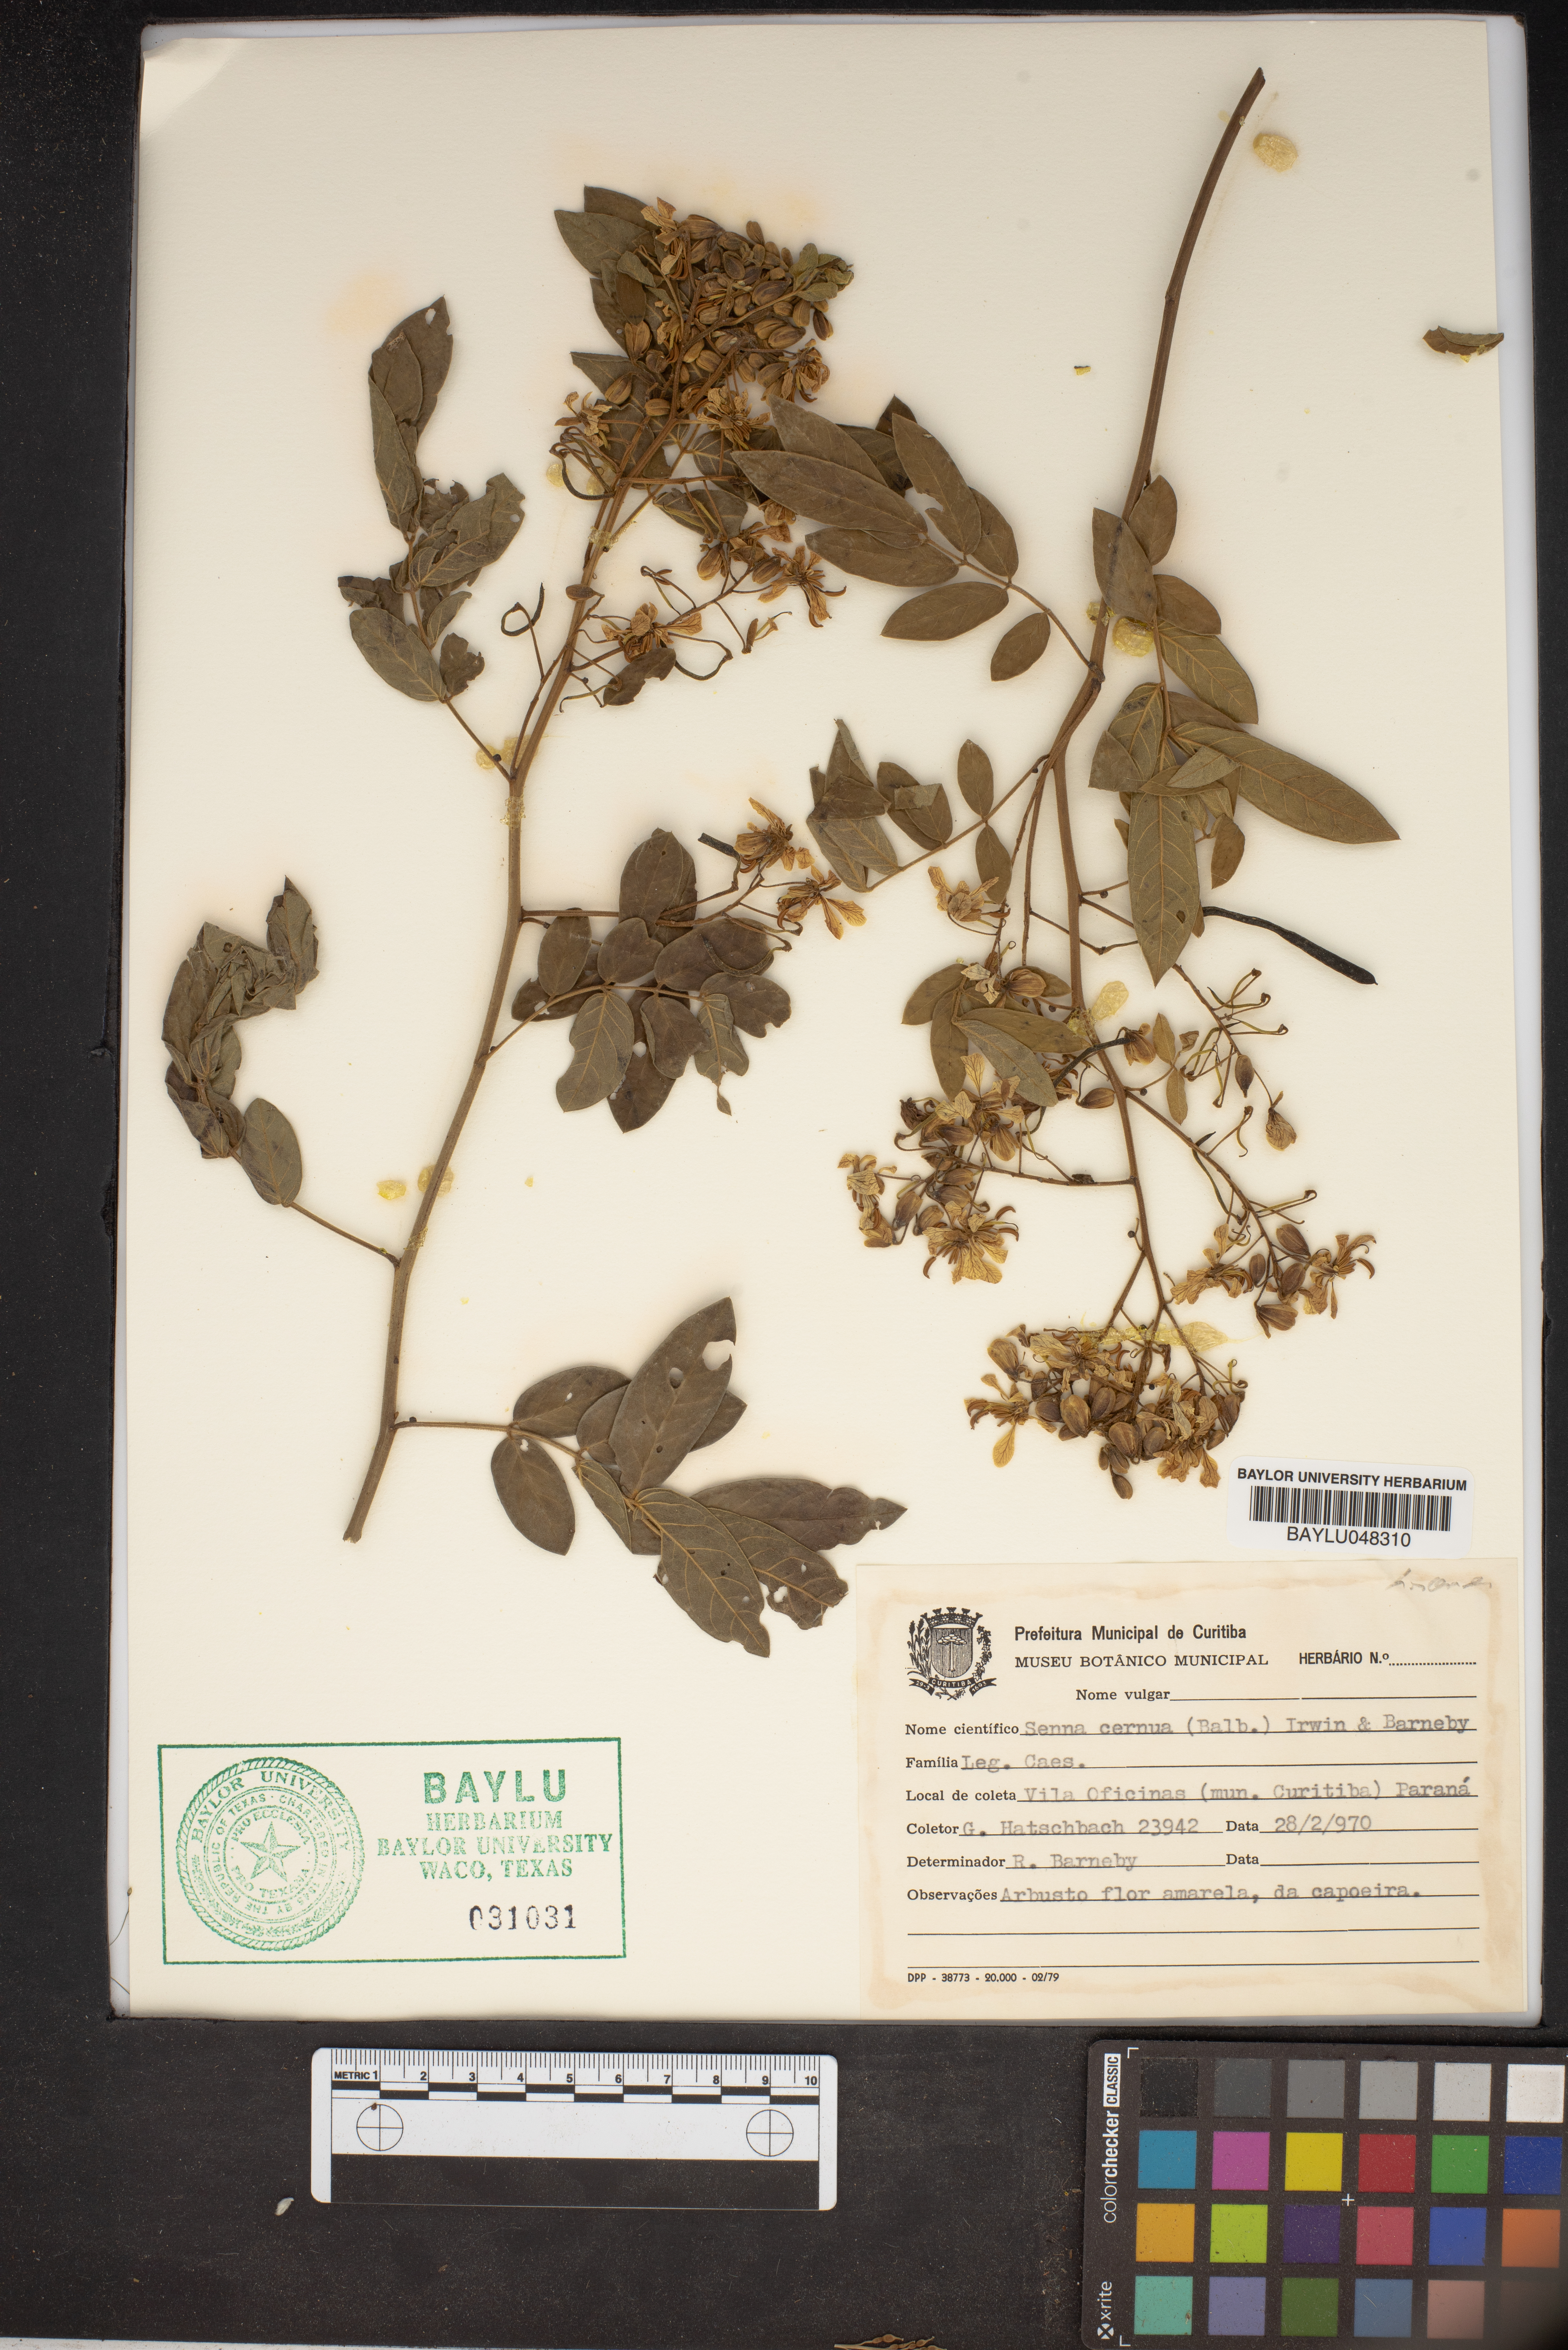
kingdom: Plantae
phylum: Tracheophyta
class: Magnoliopsida
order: Fabales
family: Fabaceae
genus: Senna
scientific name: Senna cernua
